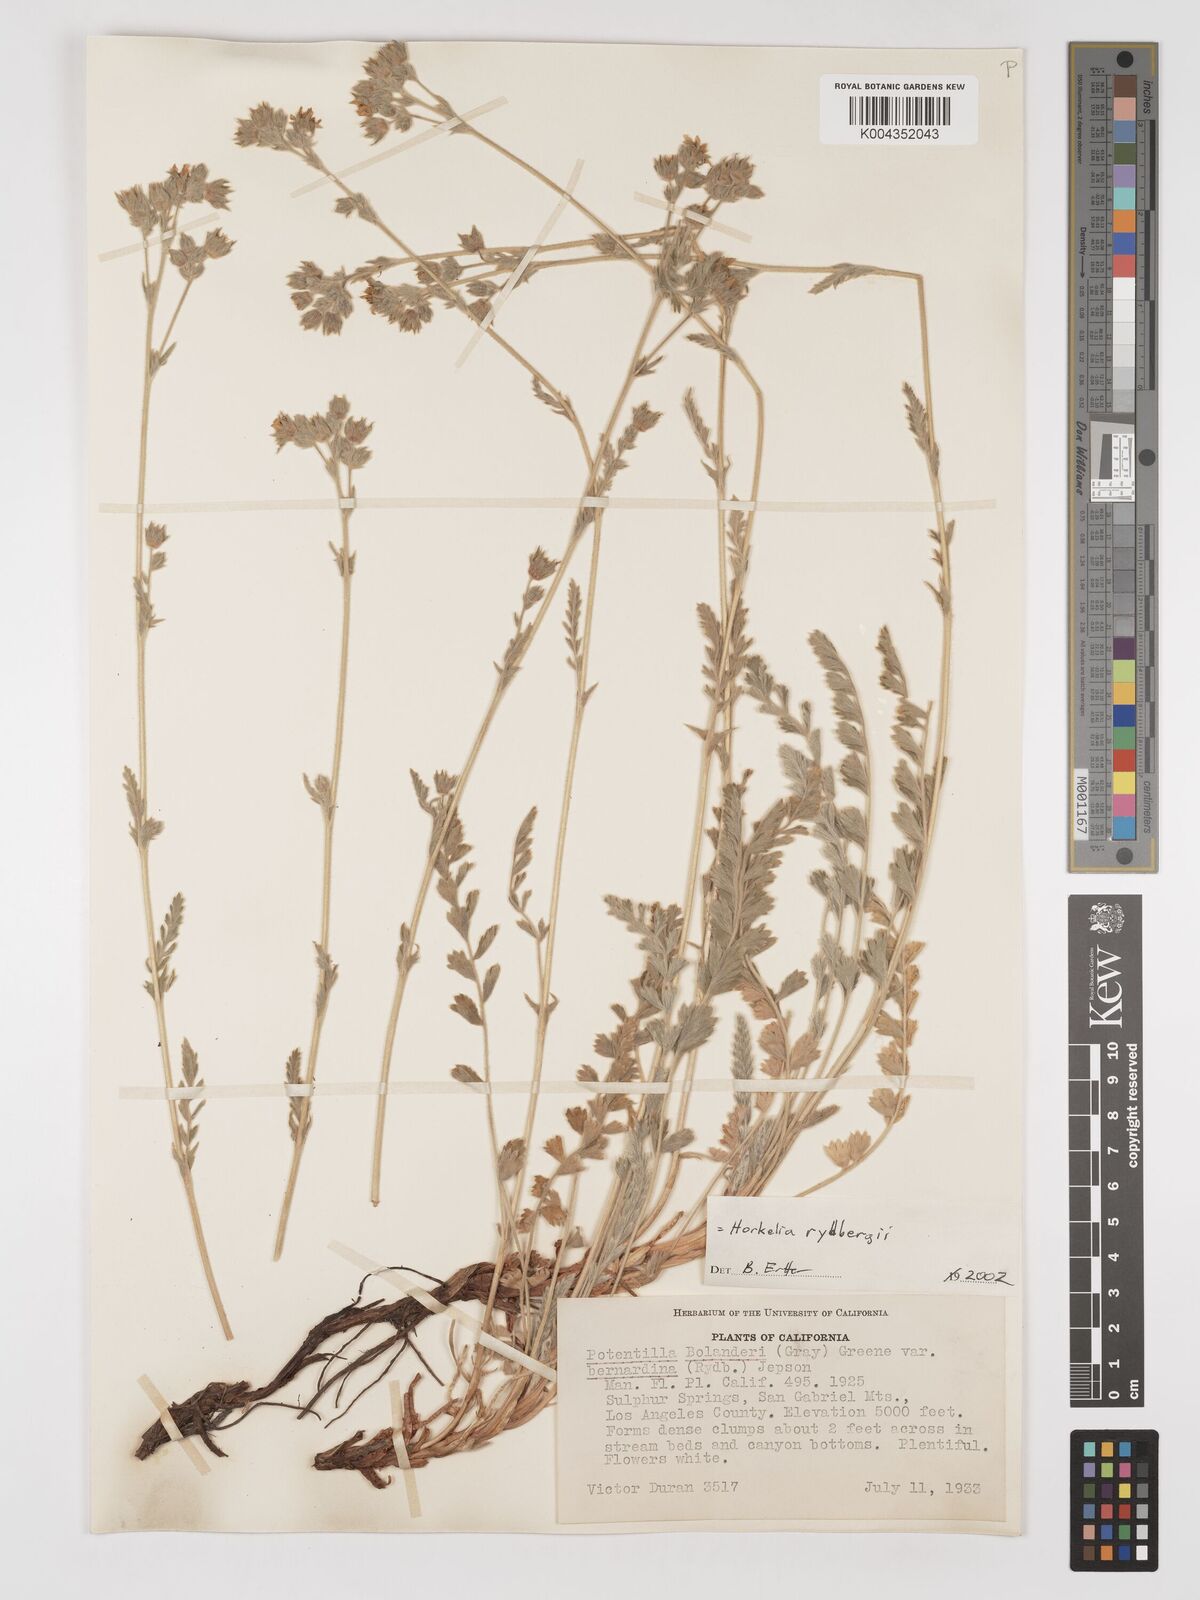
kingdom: Plantae
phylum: Tracheophyta
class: Magnoliopsida
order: Rosales
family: Rosaceae
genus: Potentilla
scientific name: Potentilla rydbergii
